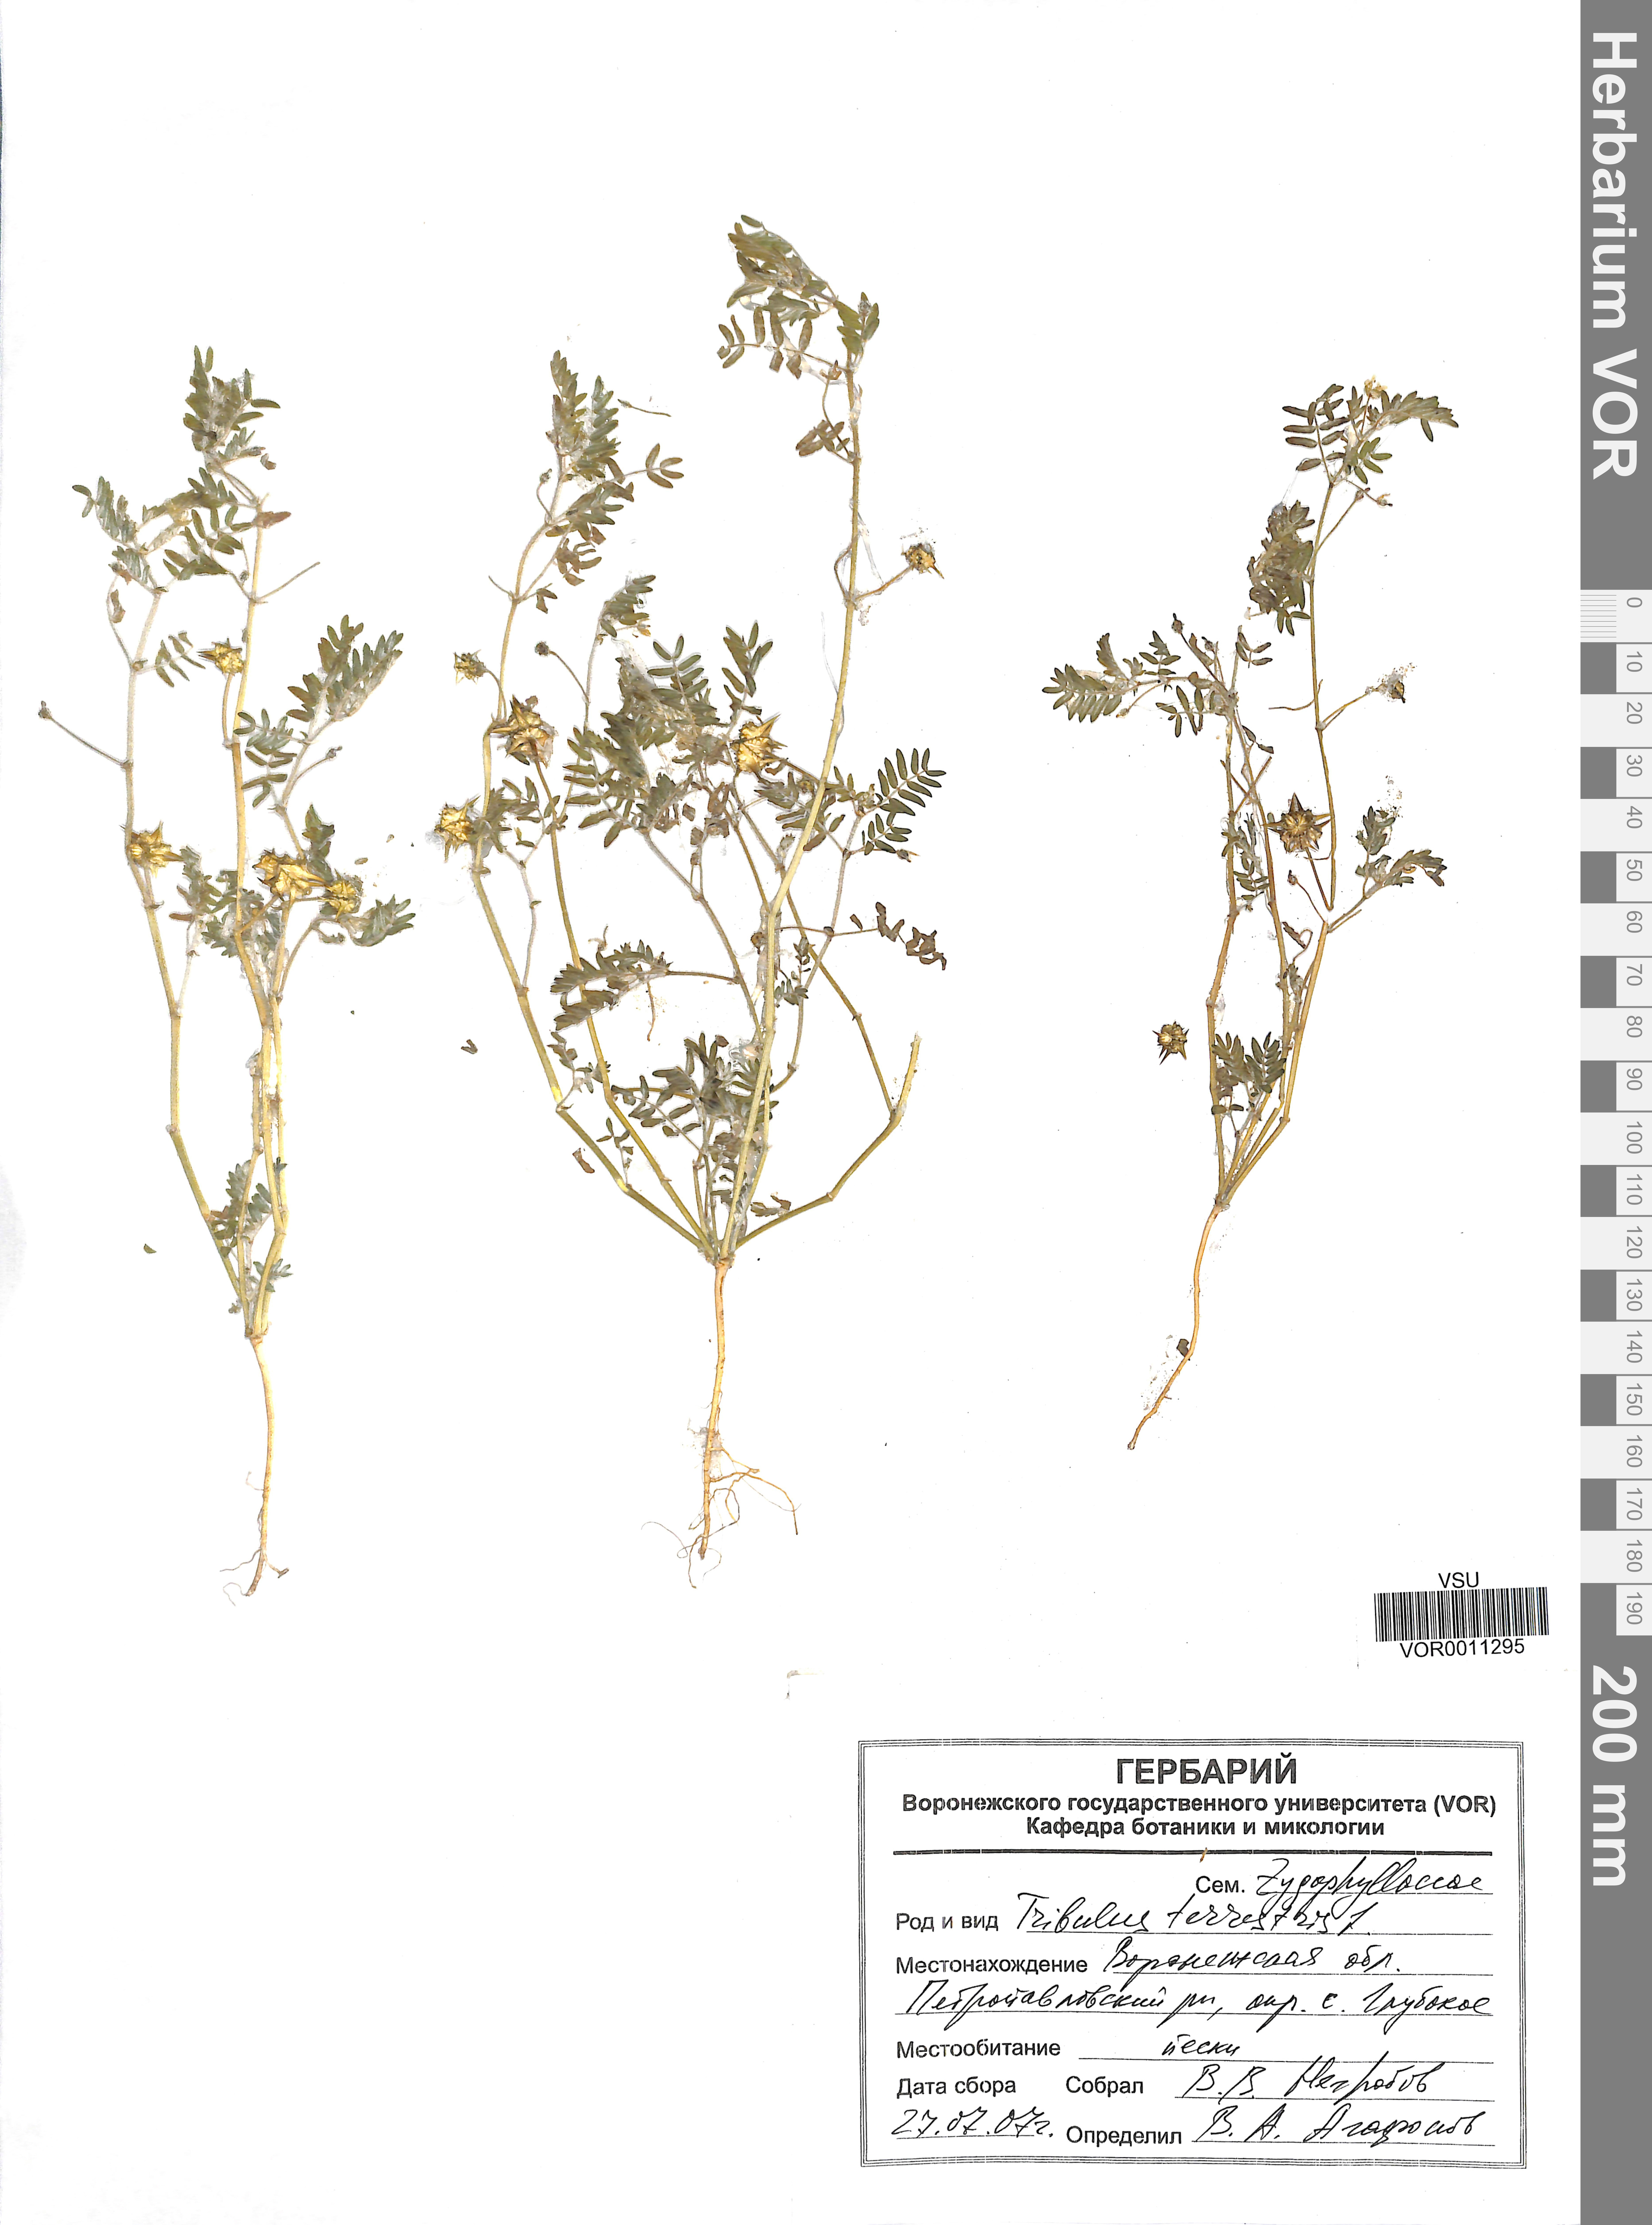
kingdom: Plantae
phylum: Tracheophyta
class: Magnoliopsida
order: Zygophyllales
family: Zygophyllaceae
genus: Tribulus
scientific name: Tribulus terrestris
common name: Puncturevine
